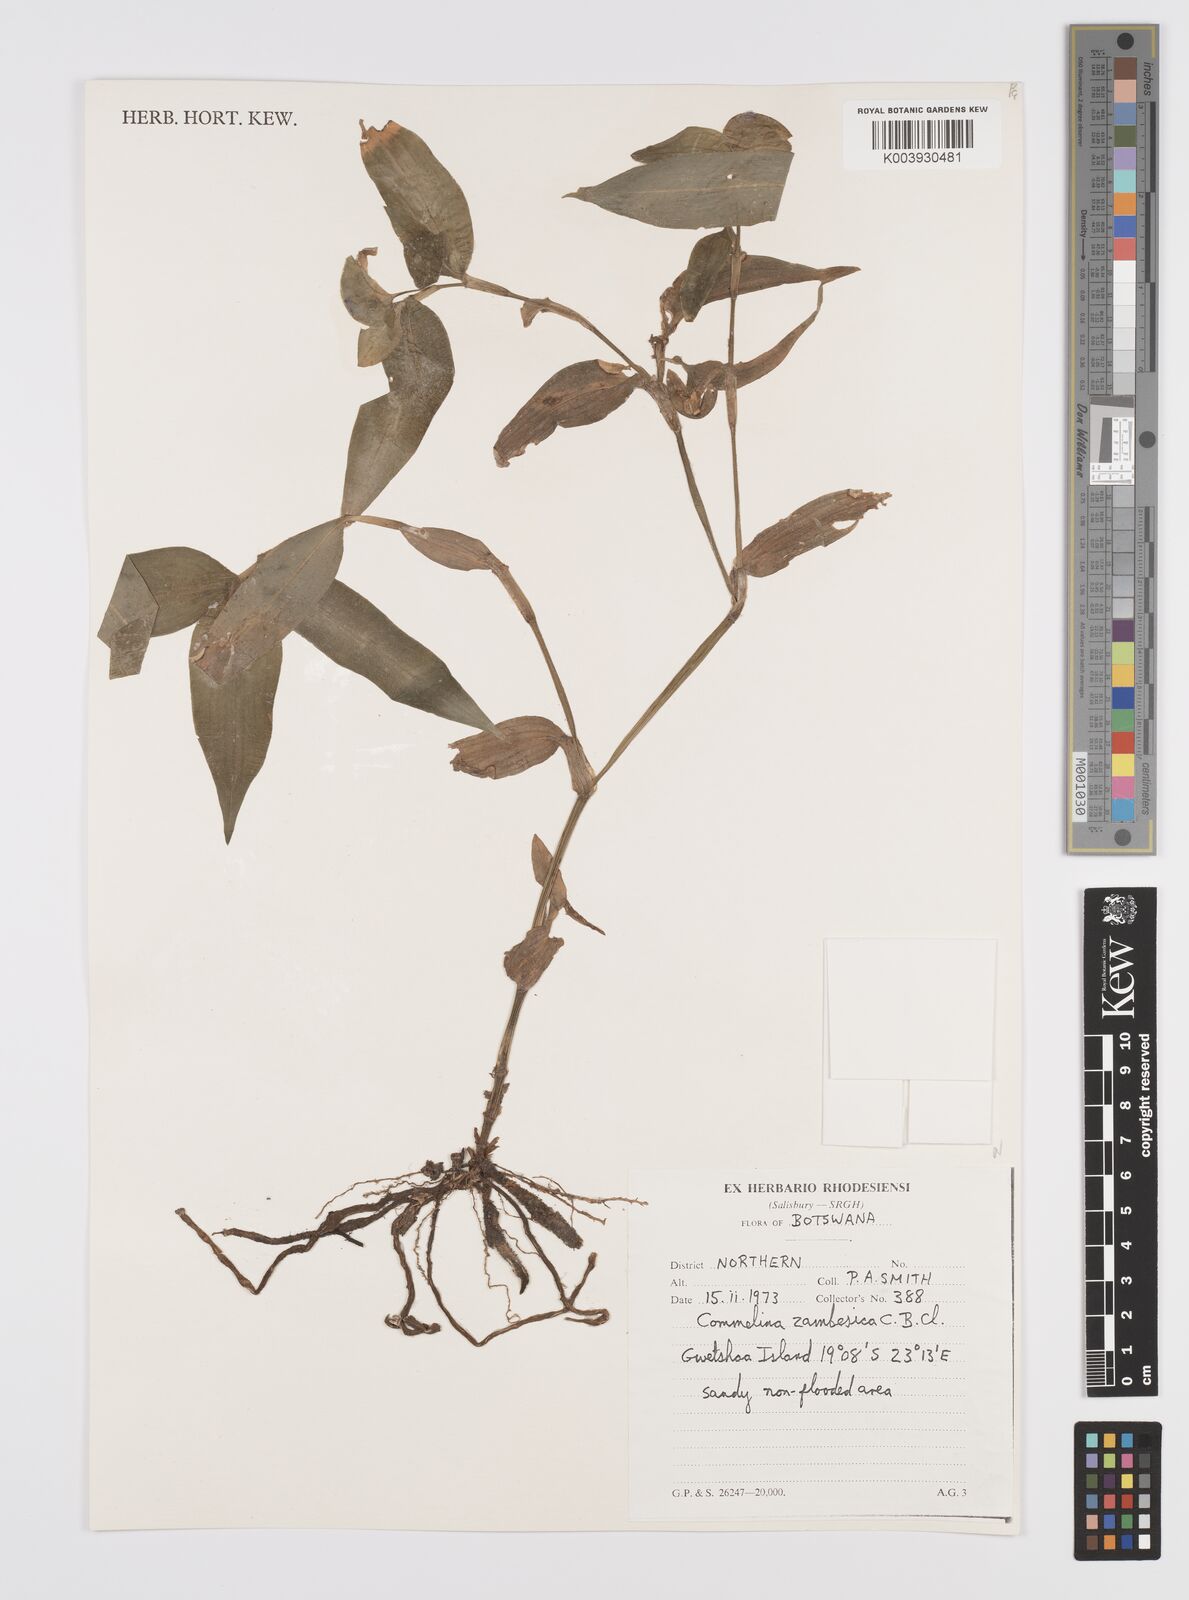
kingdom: Plantae
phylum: Tracheophyta
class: Liliopsida
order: Commelinales
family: Commelinaceae
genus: Commelina
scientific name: Commelina zambesica
